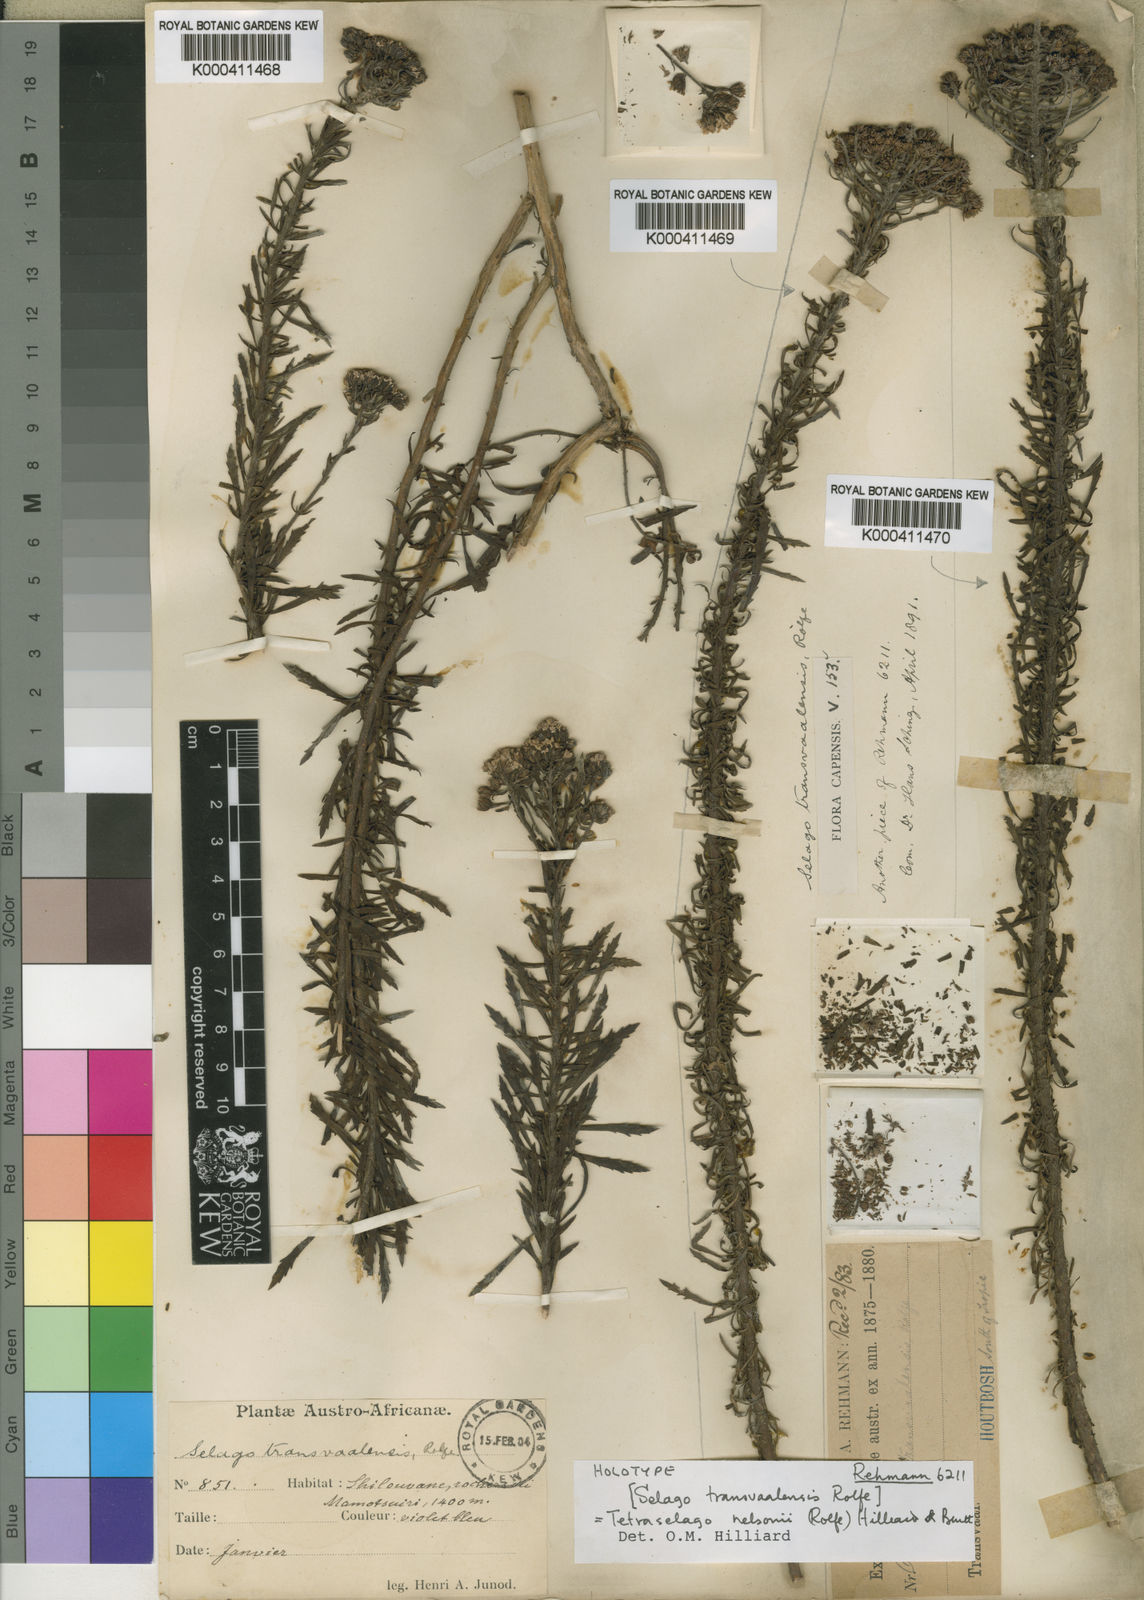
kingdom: Plantae
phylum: Tracheophyta
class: Magnoliopsida
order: Lamiales
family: Scrophulariaceae
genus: Tetraselago
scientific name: Tetraselago nelsonii
